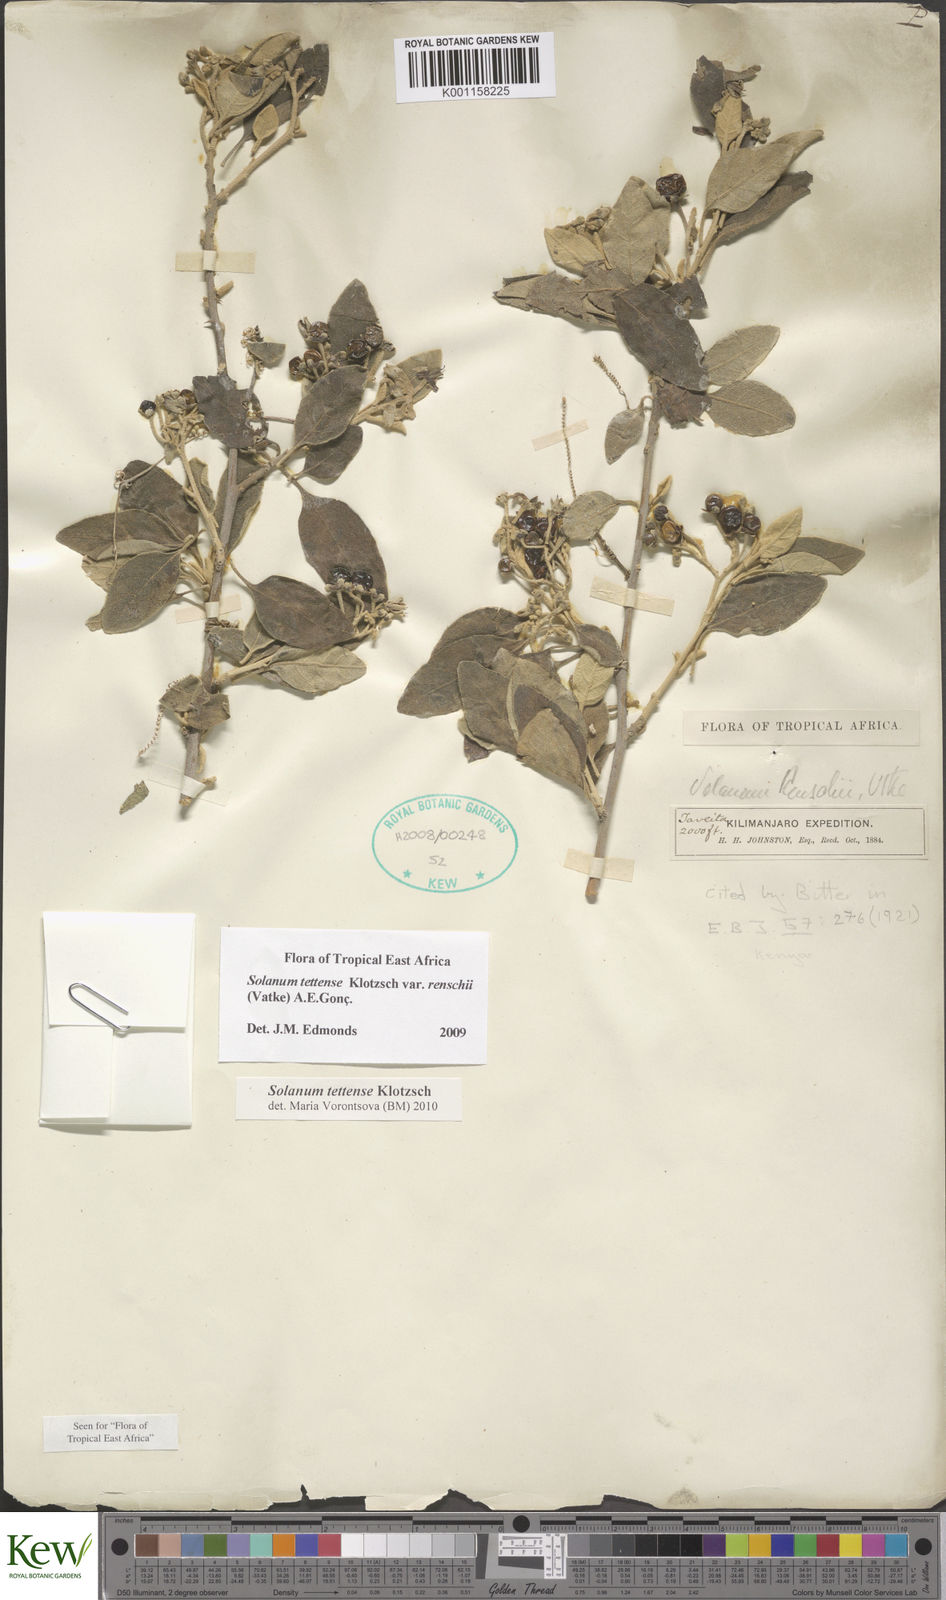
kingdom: Plantae
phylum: Tracheophyta
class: Magnoliopsida
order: Solanales
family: Solanaceae
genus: Solanum
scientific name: Solanum tettense
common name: Mozambique bitter apple
